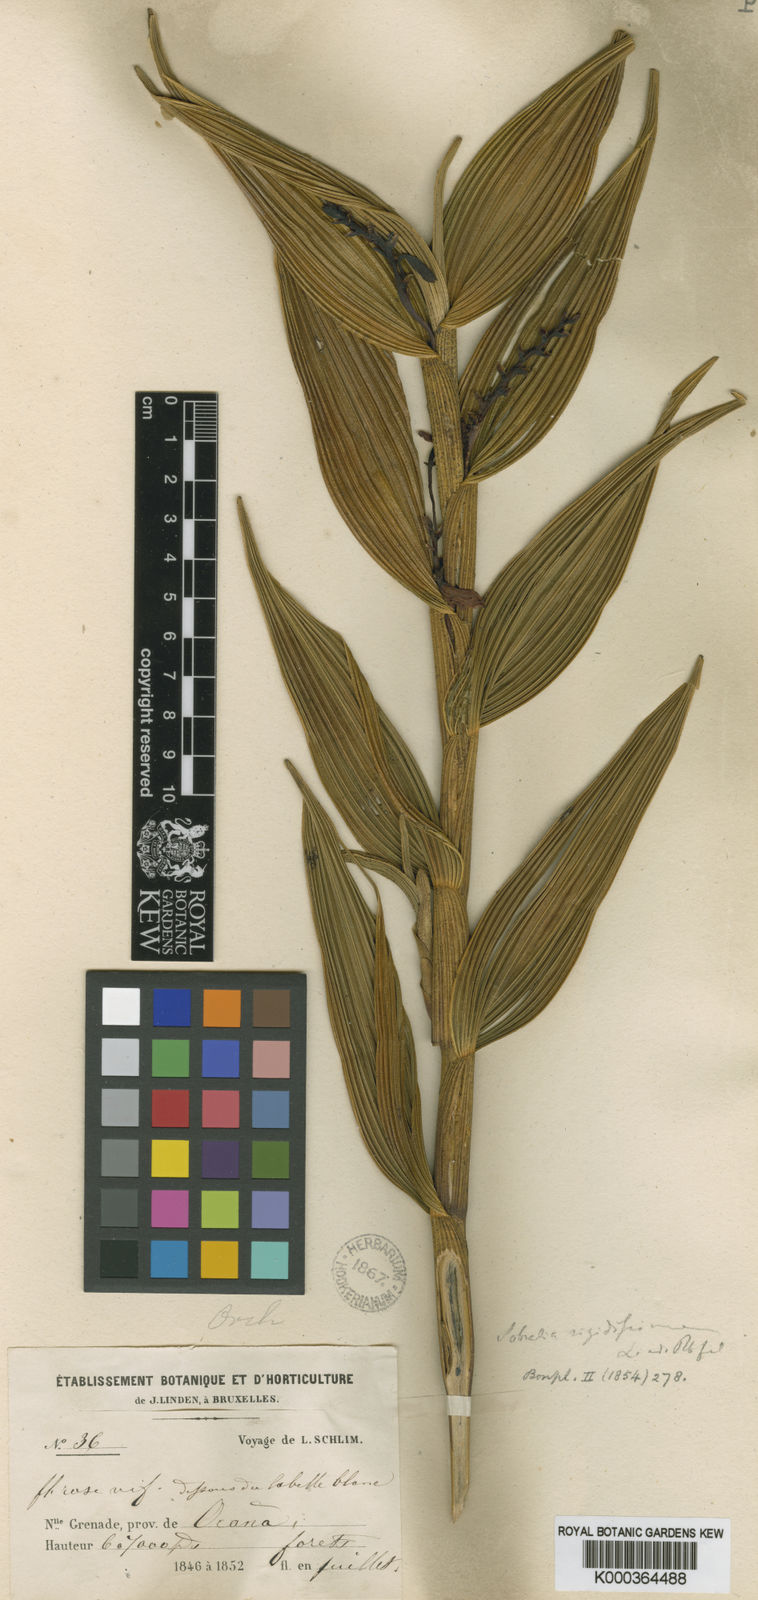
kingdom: Plantae
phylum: Tracheophyta
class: Liliopsida
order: Asparagales
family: Orchidaceae
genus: Sobralia
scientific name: Sobralia rigidissima
